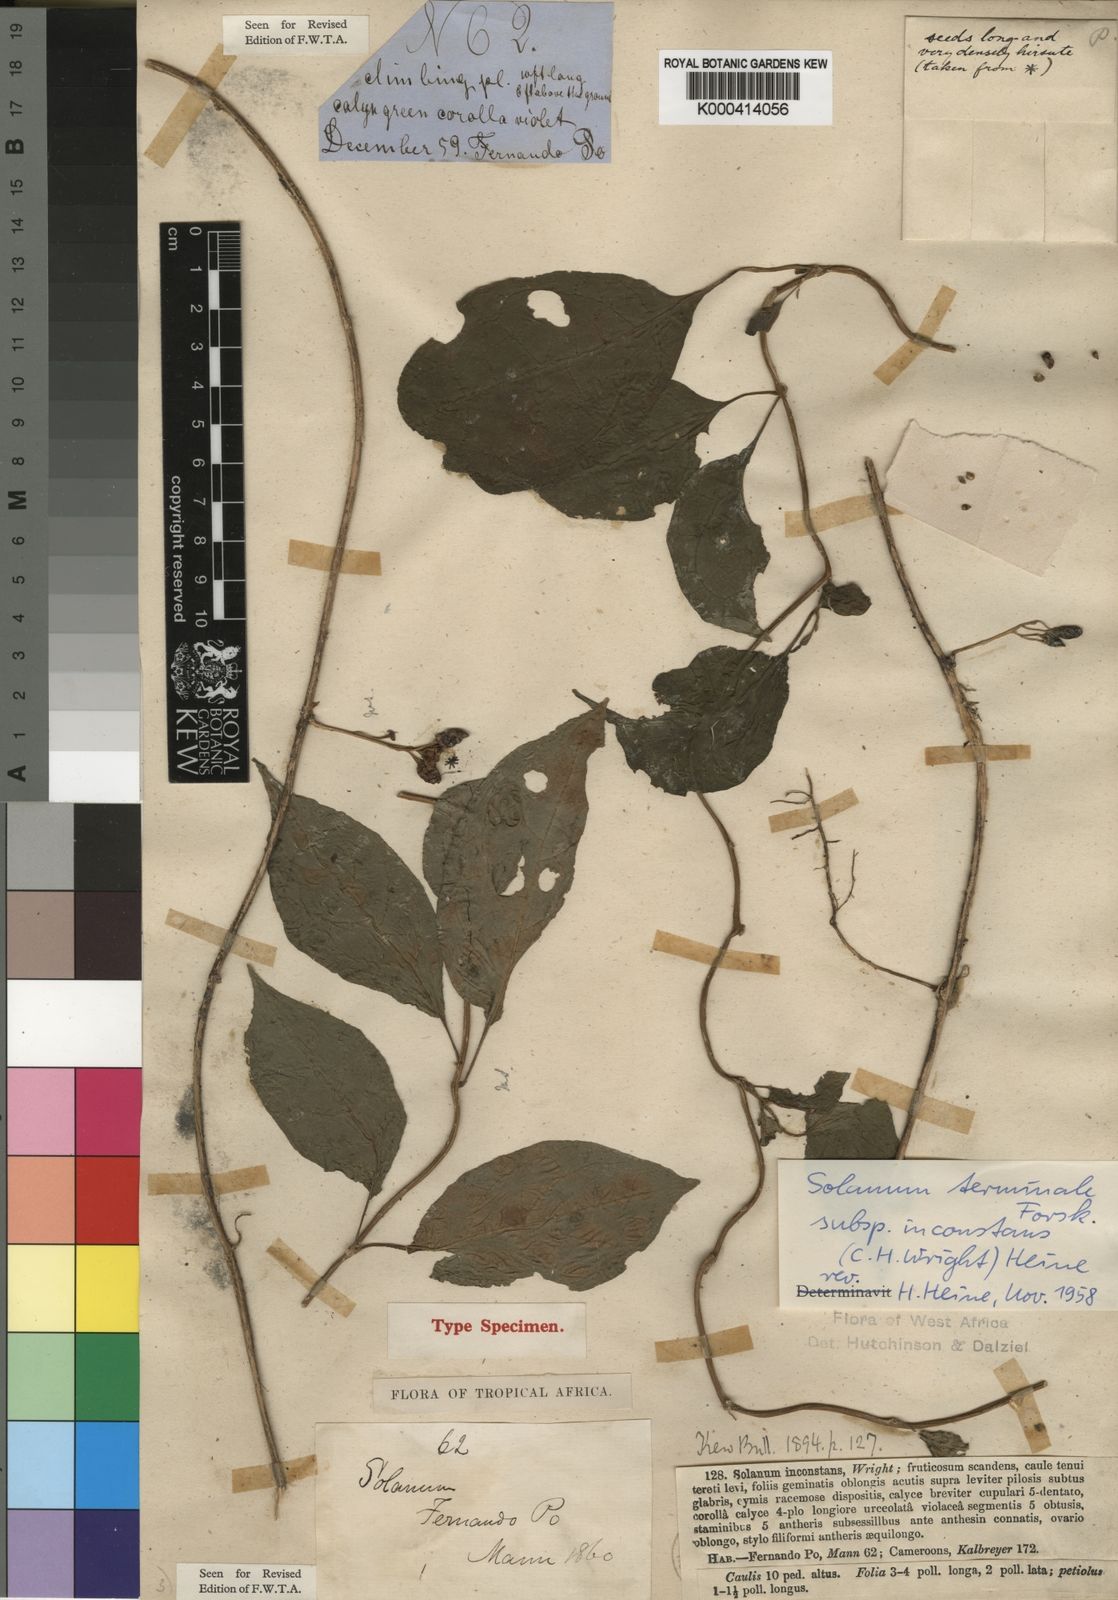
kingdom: Plantae
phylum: Tracheophyta
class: Magnoliopsida
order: Solanales
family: Solanaceae
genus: Solanum
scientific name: Solanum terminale
